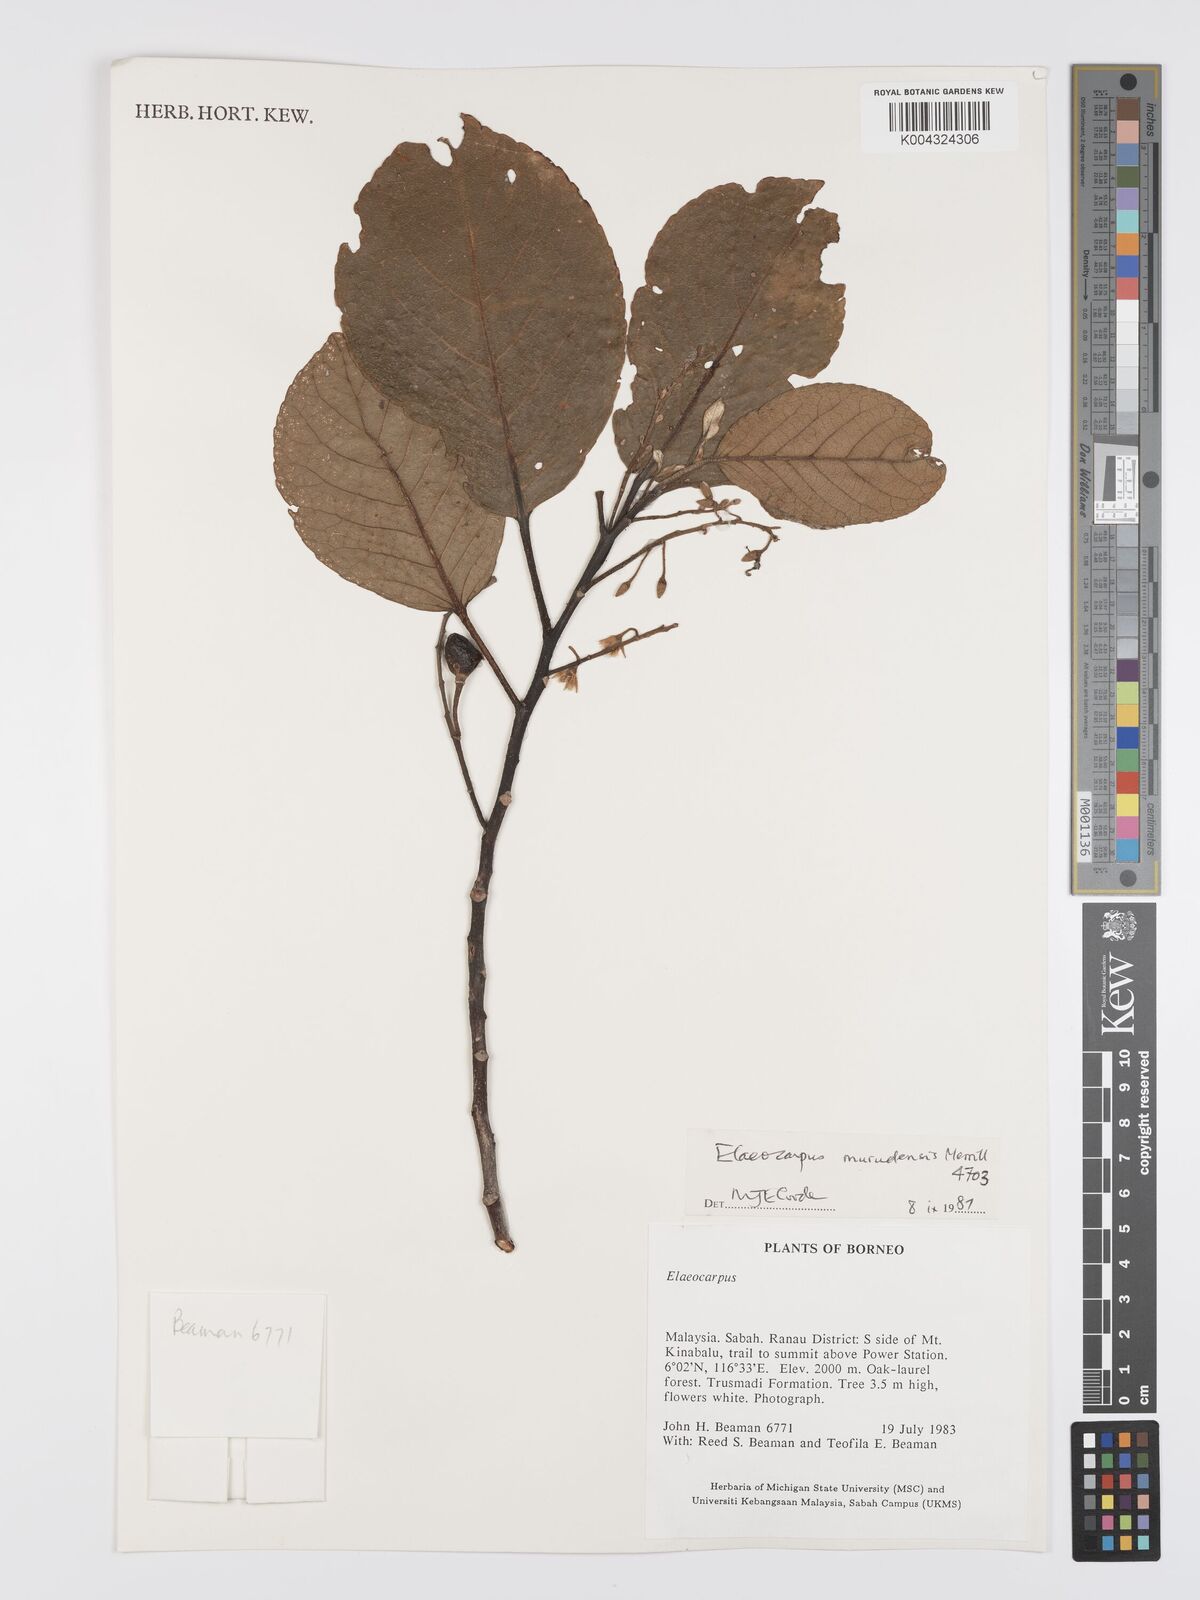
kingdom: Plantae
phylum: Tracheophyta
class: Magnoliopsida
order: Oxalidales
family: Elaeocarpaceae
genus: Elaeocarpus
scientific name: Elaeocarpus murudensis
